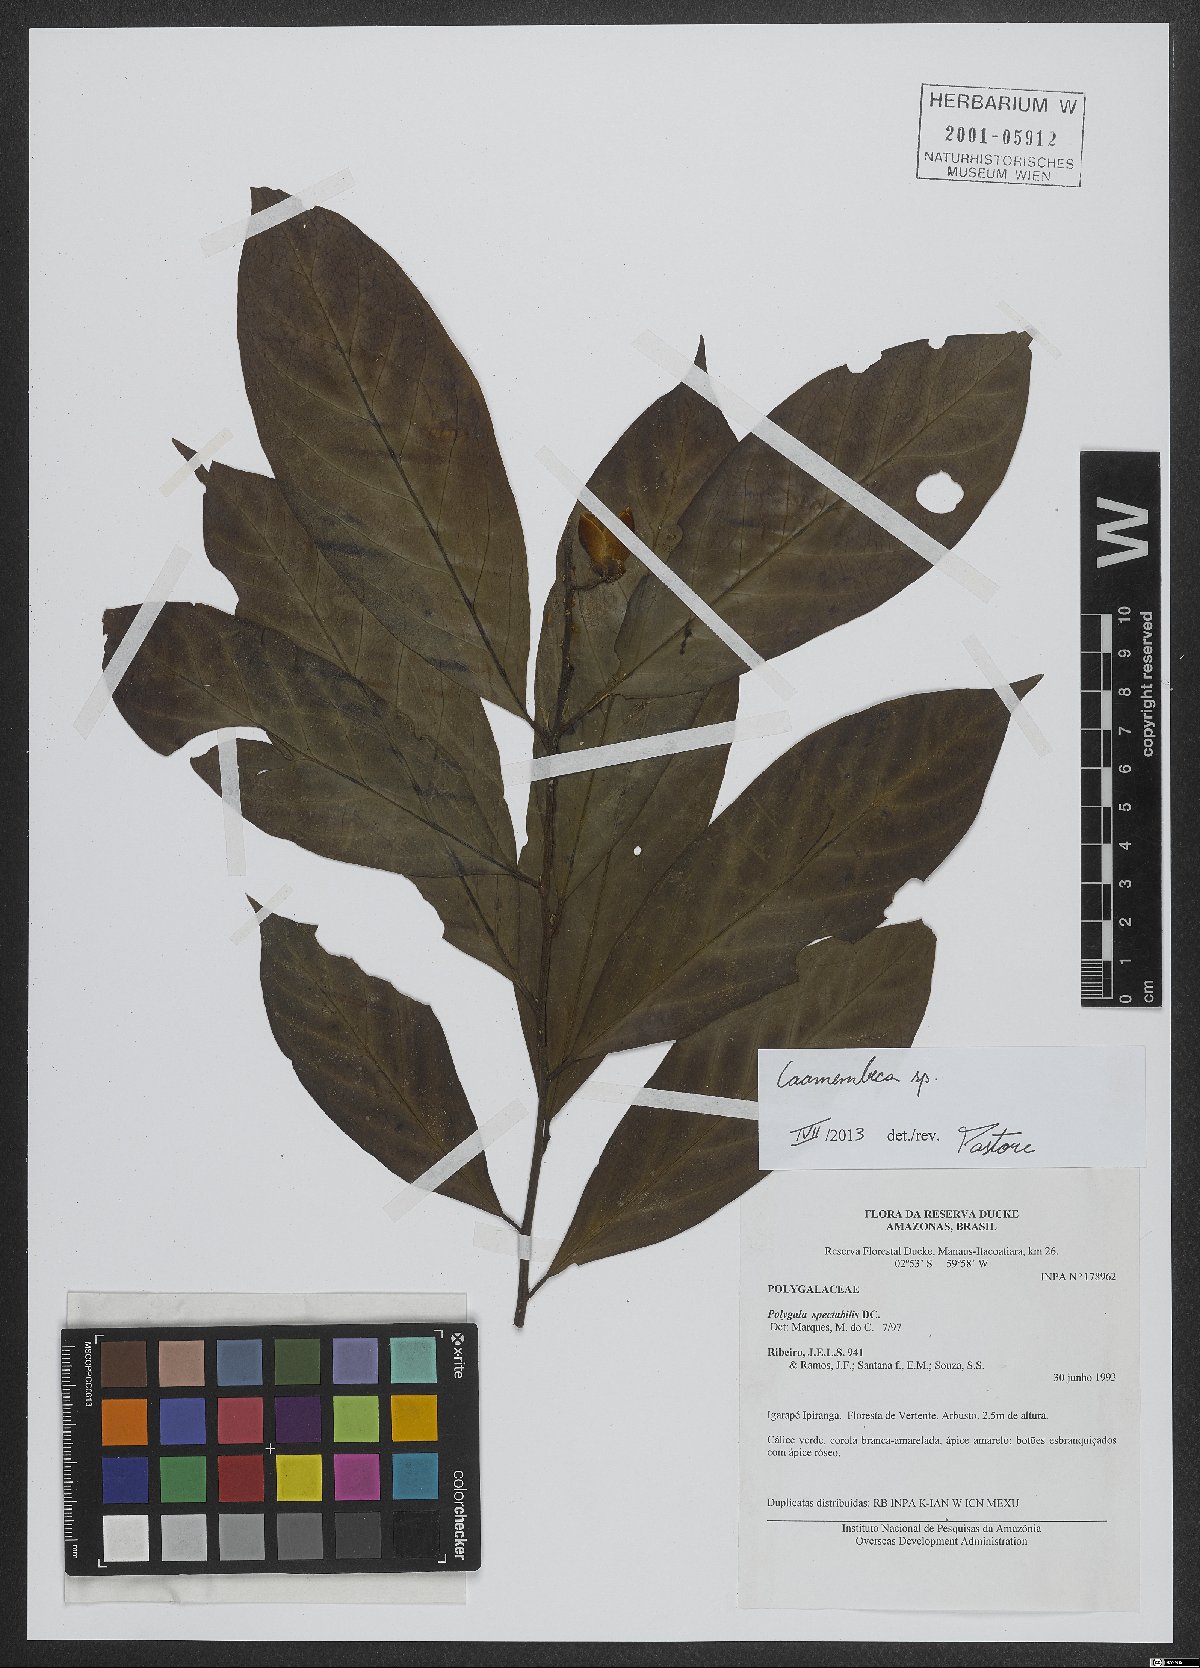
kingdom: Plantae
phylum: Tracheophyta
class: Magnoliopsida
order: Fabales
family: Polygalaceae
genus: Caamembeca
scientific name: Caamembeca
